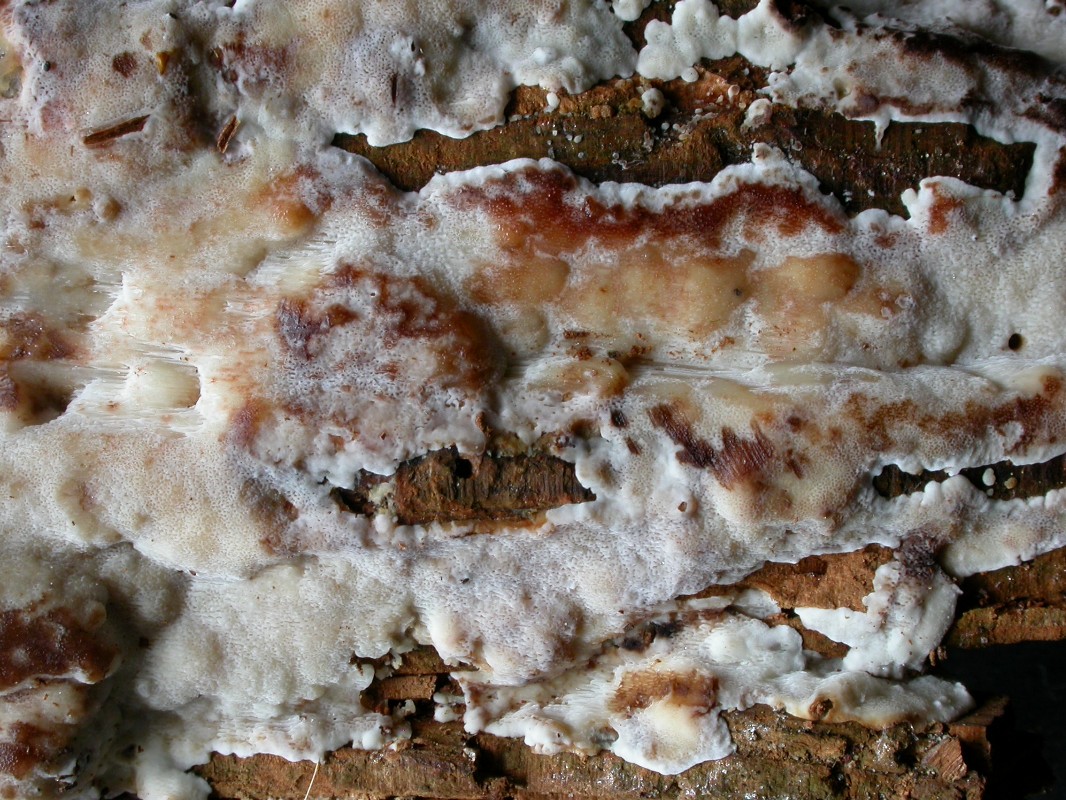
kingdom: Fungi
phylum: Basidiomycota
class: Agaricomycetes
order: Polyporales
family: Meripilaceae
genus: Rigidoporus
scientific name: Rigidoporus sanguinolentus
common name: blod-skorpeporesvamp
